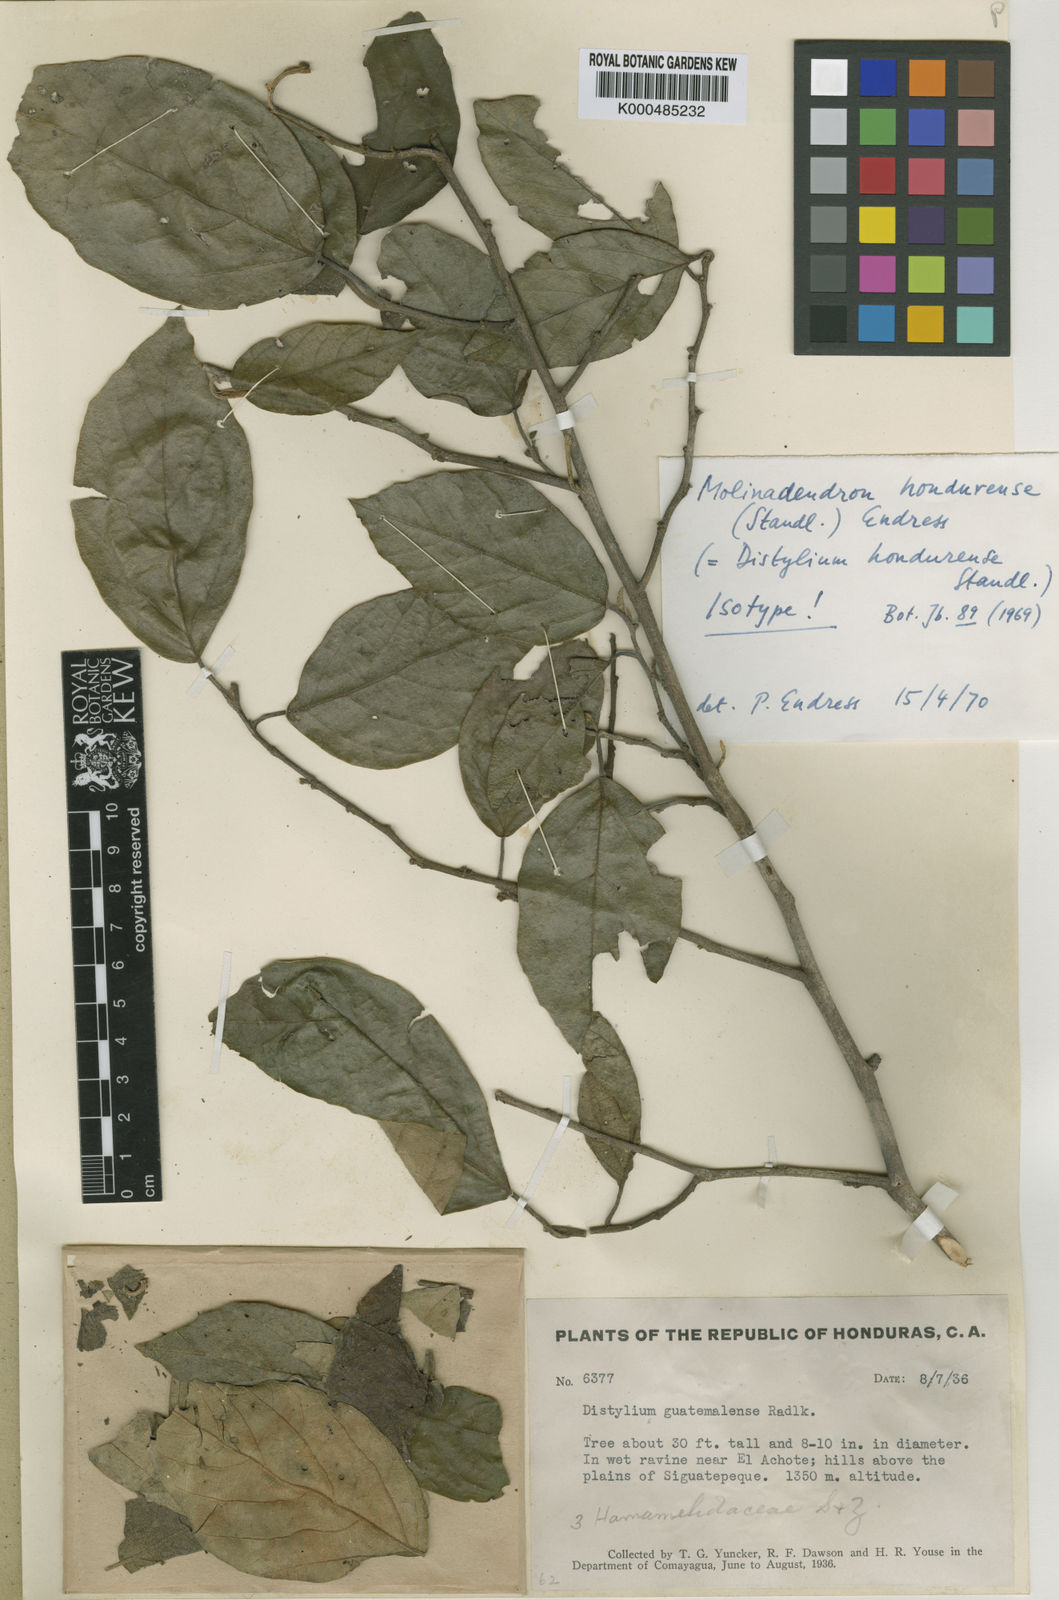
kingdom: Plantae
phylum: Tracheophyta
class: Magnoliopsida
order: Saxifragales
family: Hamamelidaceae
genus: Molinadendron
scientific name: Molinadendron guatemalense
